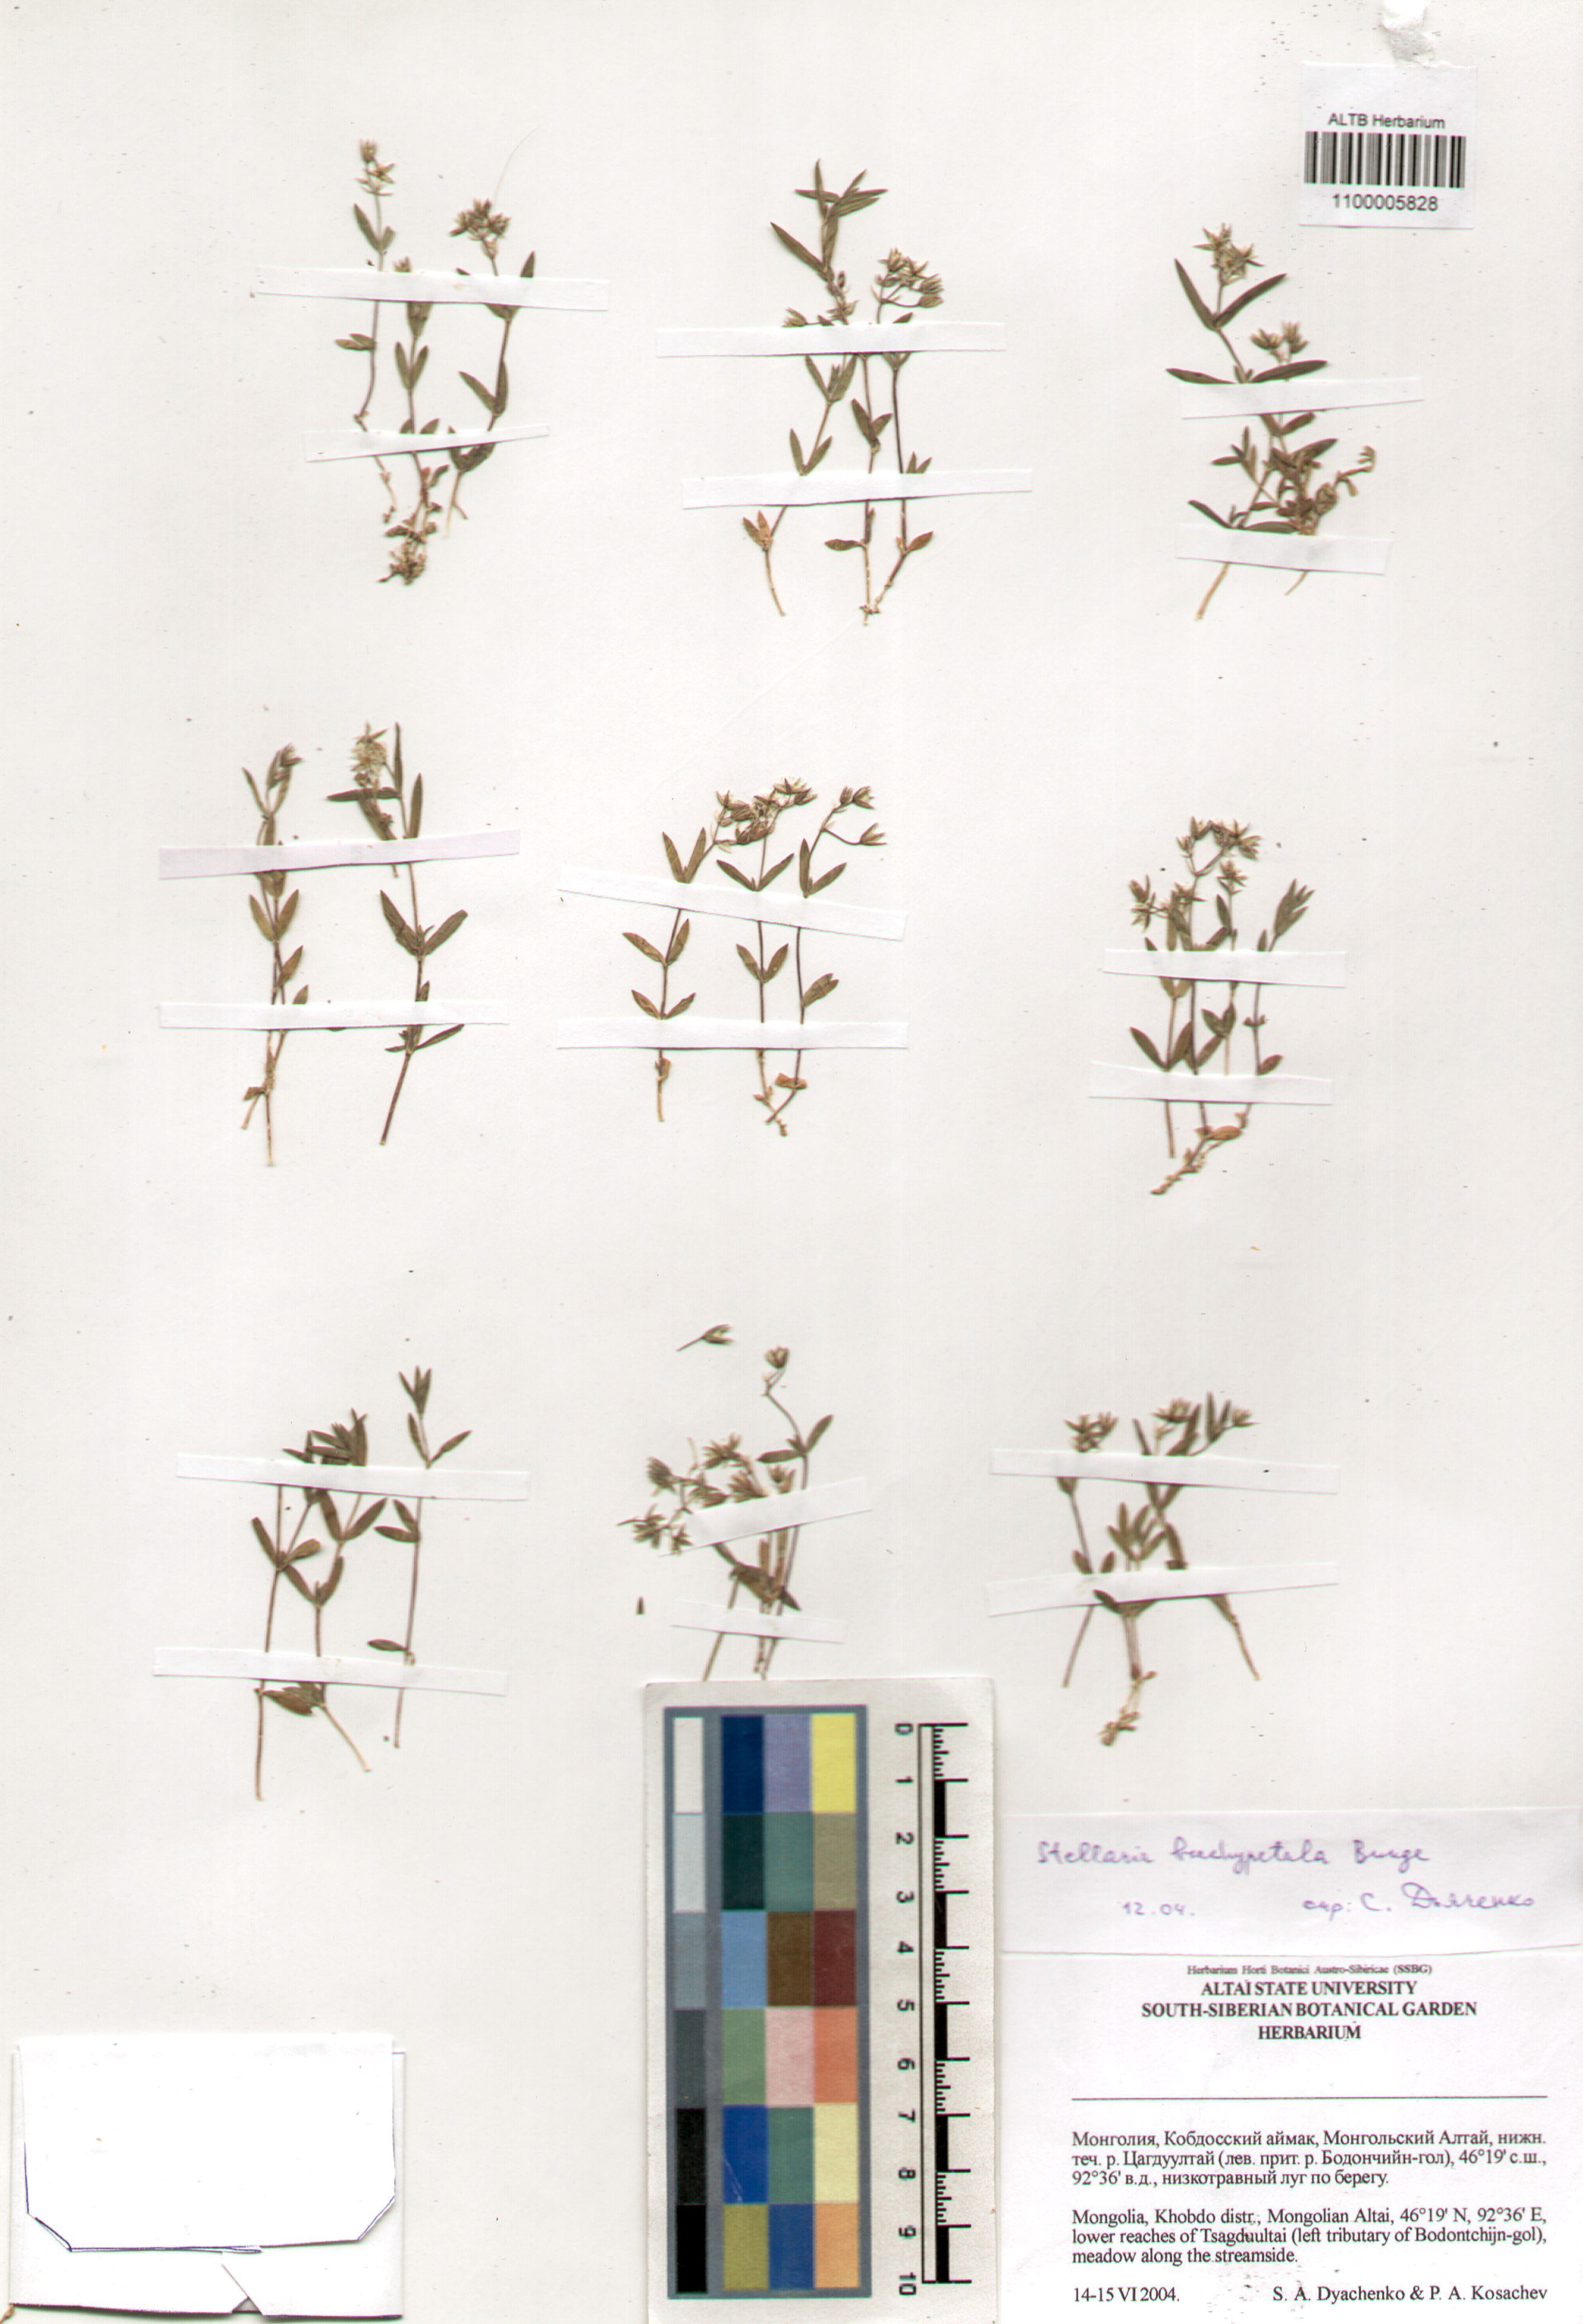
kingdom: Plantae
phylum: Tracheophyta
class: Magnoliopsida
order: Caryophyllales
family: Caryophyllaceae
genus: Stellaria
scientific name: Stellaria brachypetala
